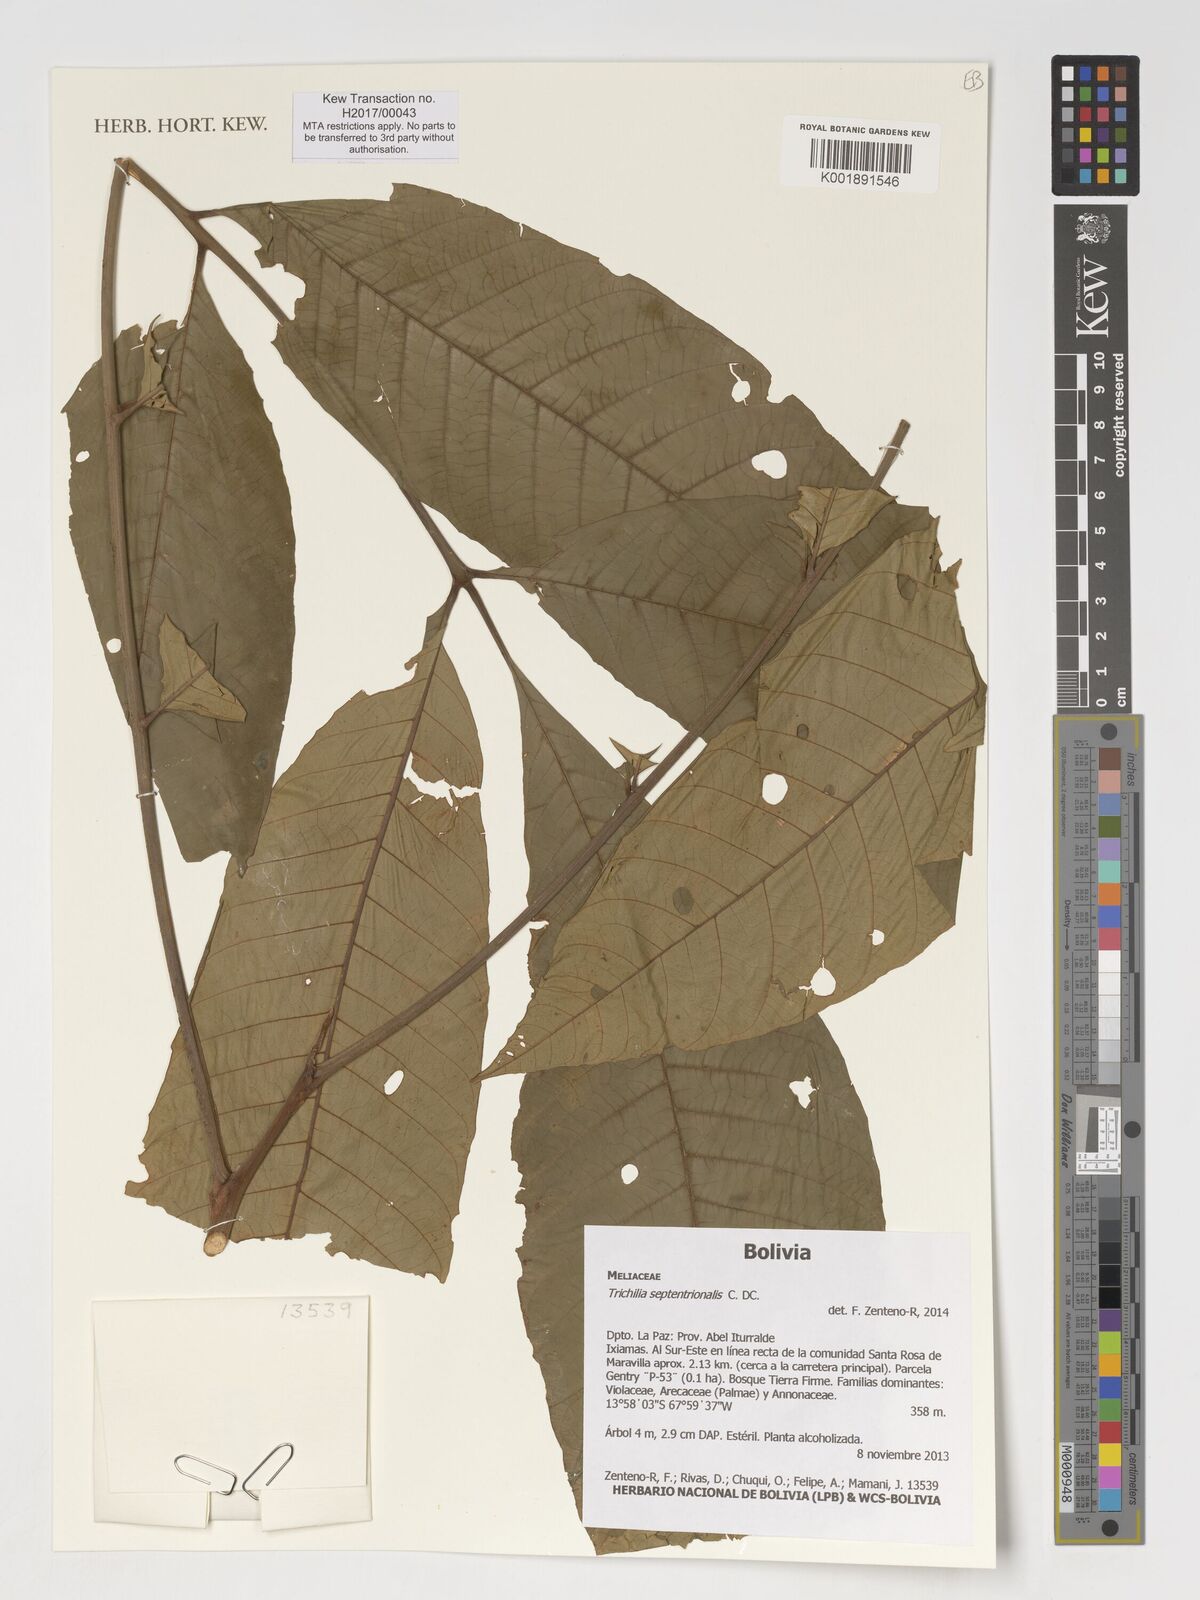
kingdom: Plantae
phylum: Tracheophyta
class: Magnoliopsida
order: Sapindales
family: Meliaceae
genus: Trichilia
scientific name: Trichilia septentrionalis
